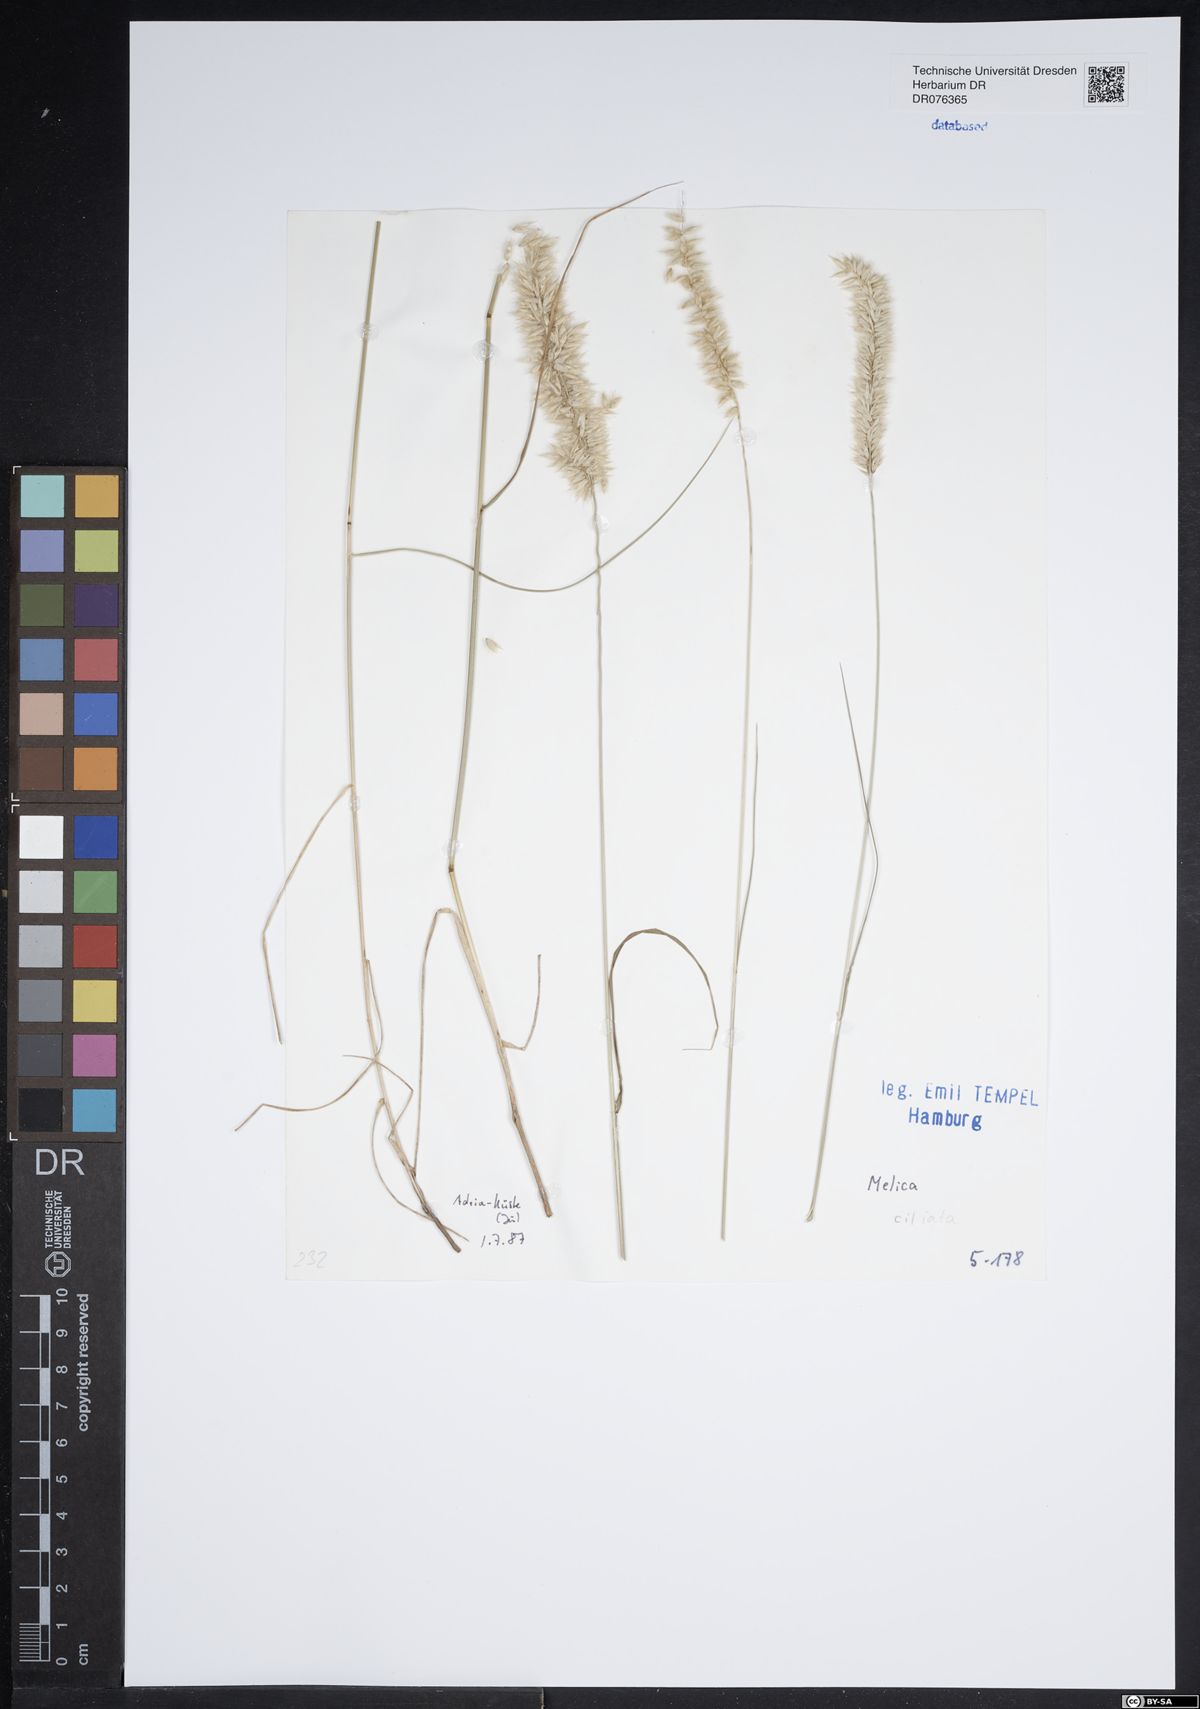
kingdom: Plantae
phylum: Tracheophyta
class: Liliopsida
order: Poales
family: Poaceae
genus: Melica
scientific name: Melica ciliata
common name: Hairy melicgrass
